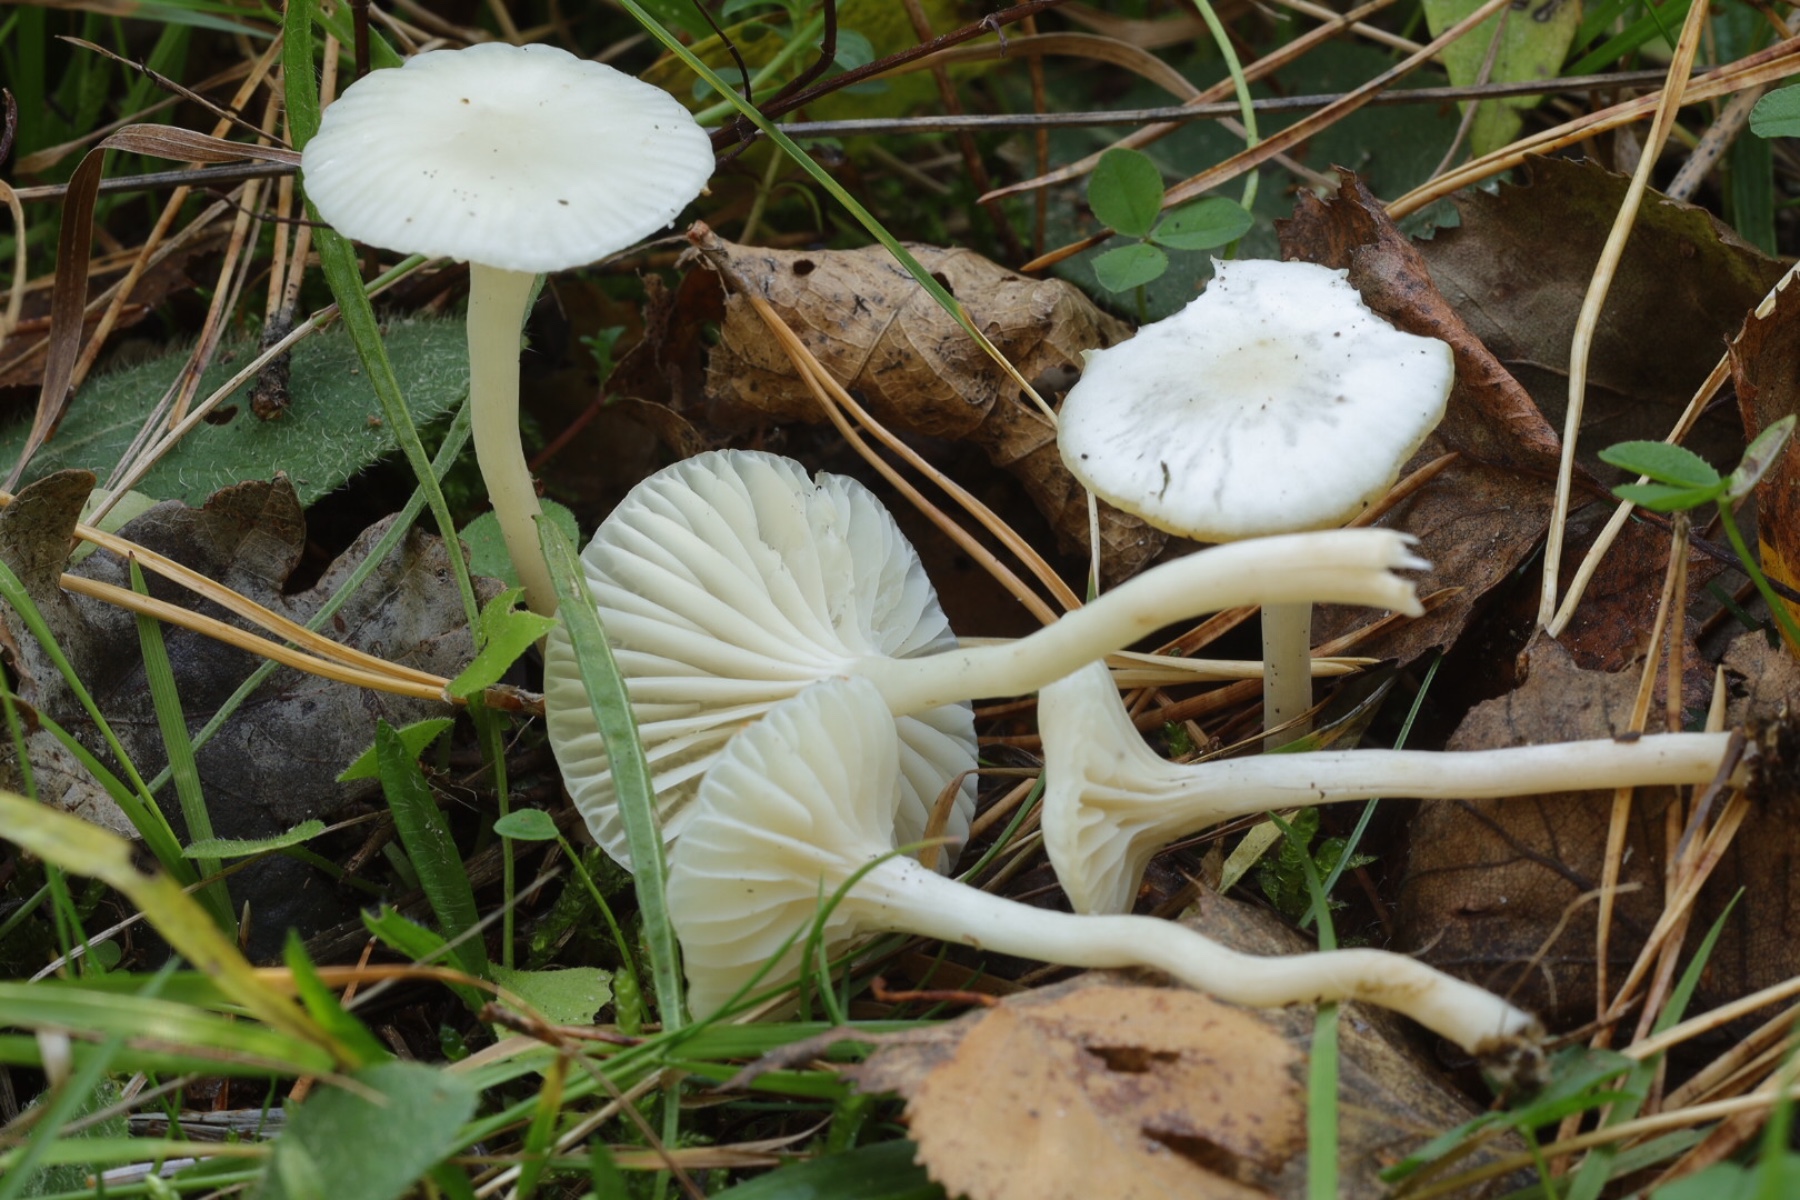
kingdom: Fungi
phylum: Basidiomycota
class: Agaricomycetes
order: Agaricales
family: Hygrophoraceae
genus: Cuphophyllus
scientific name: Cuphophyllus virgineus
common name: snehvid vokshat
